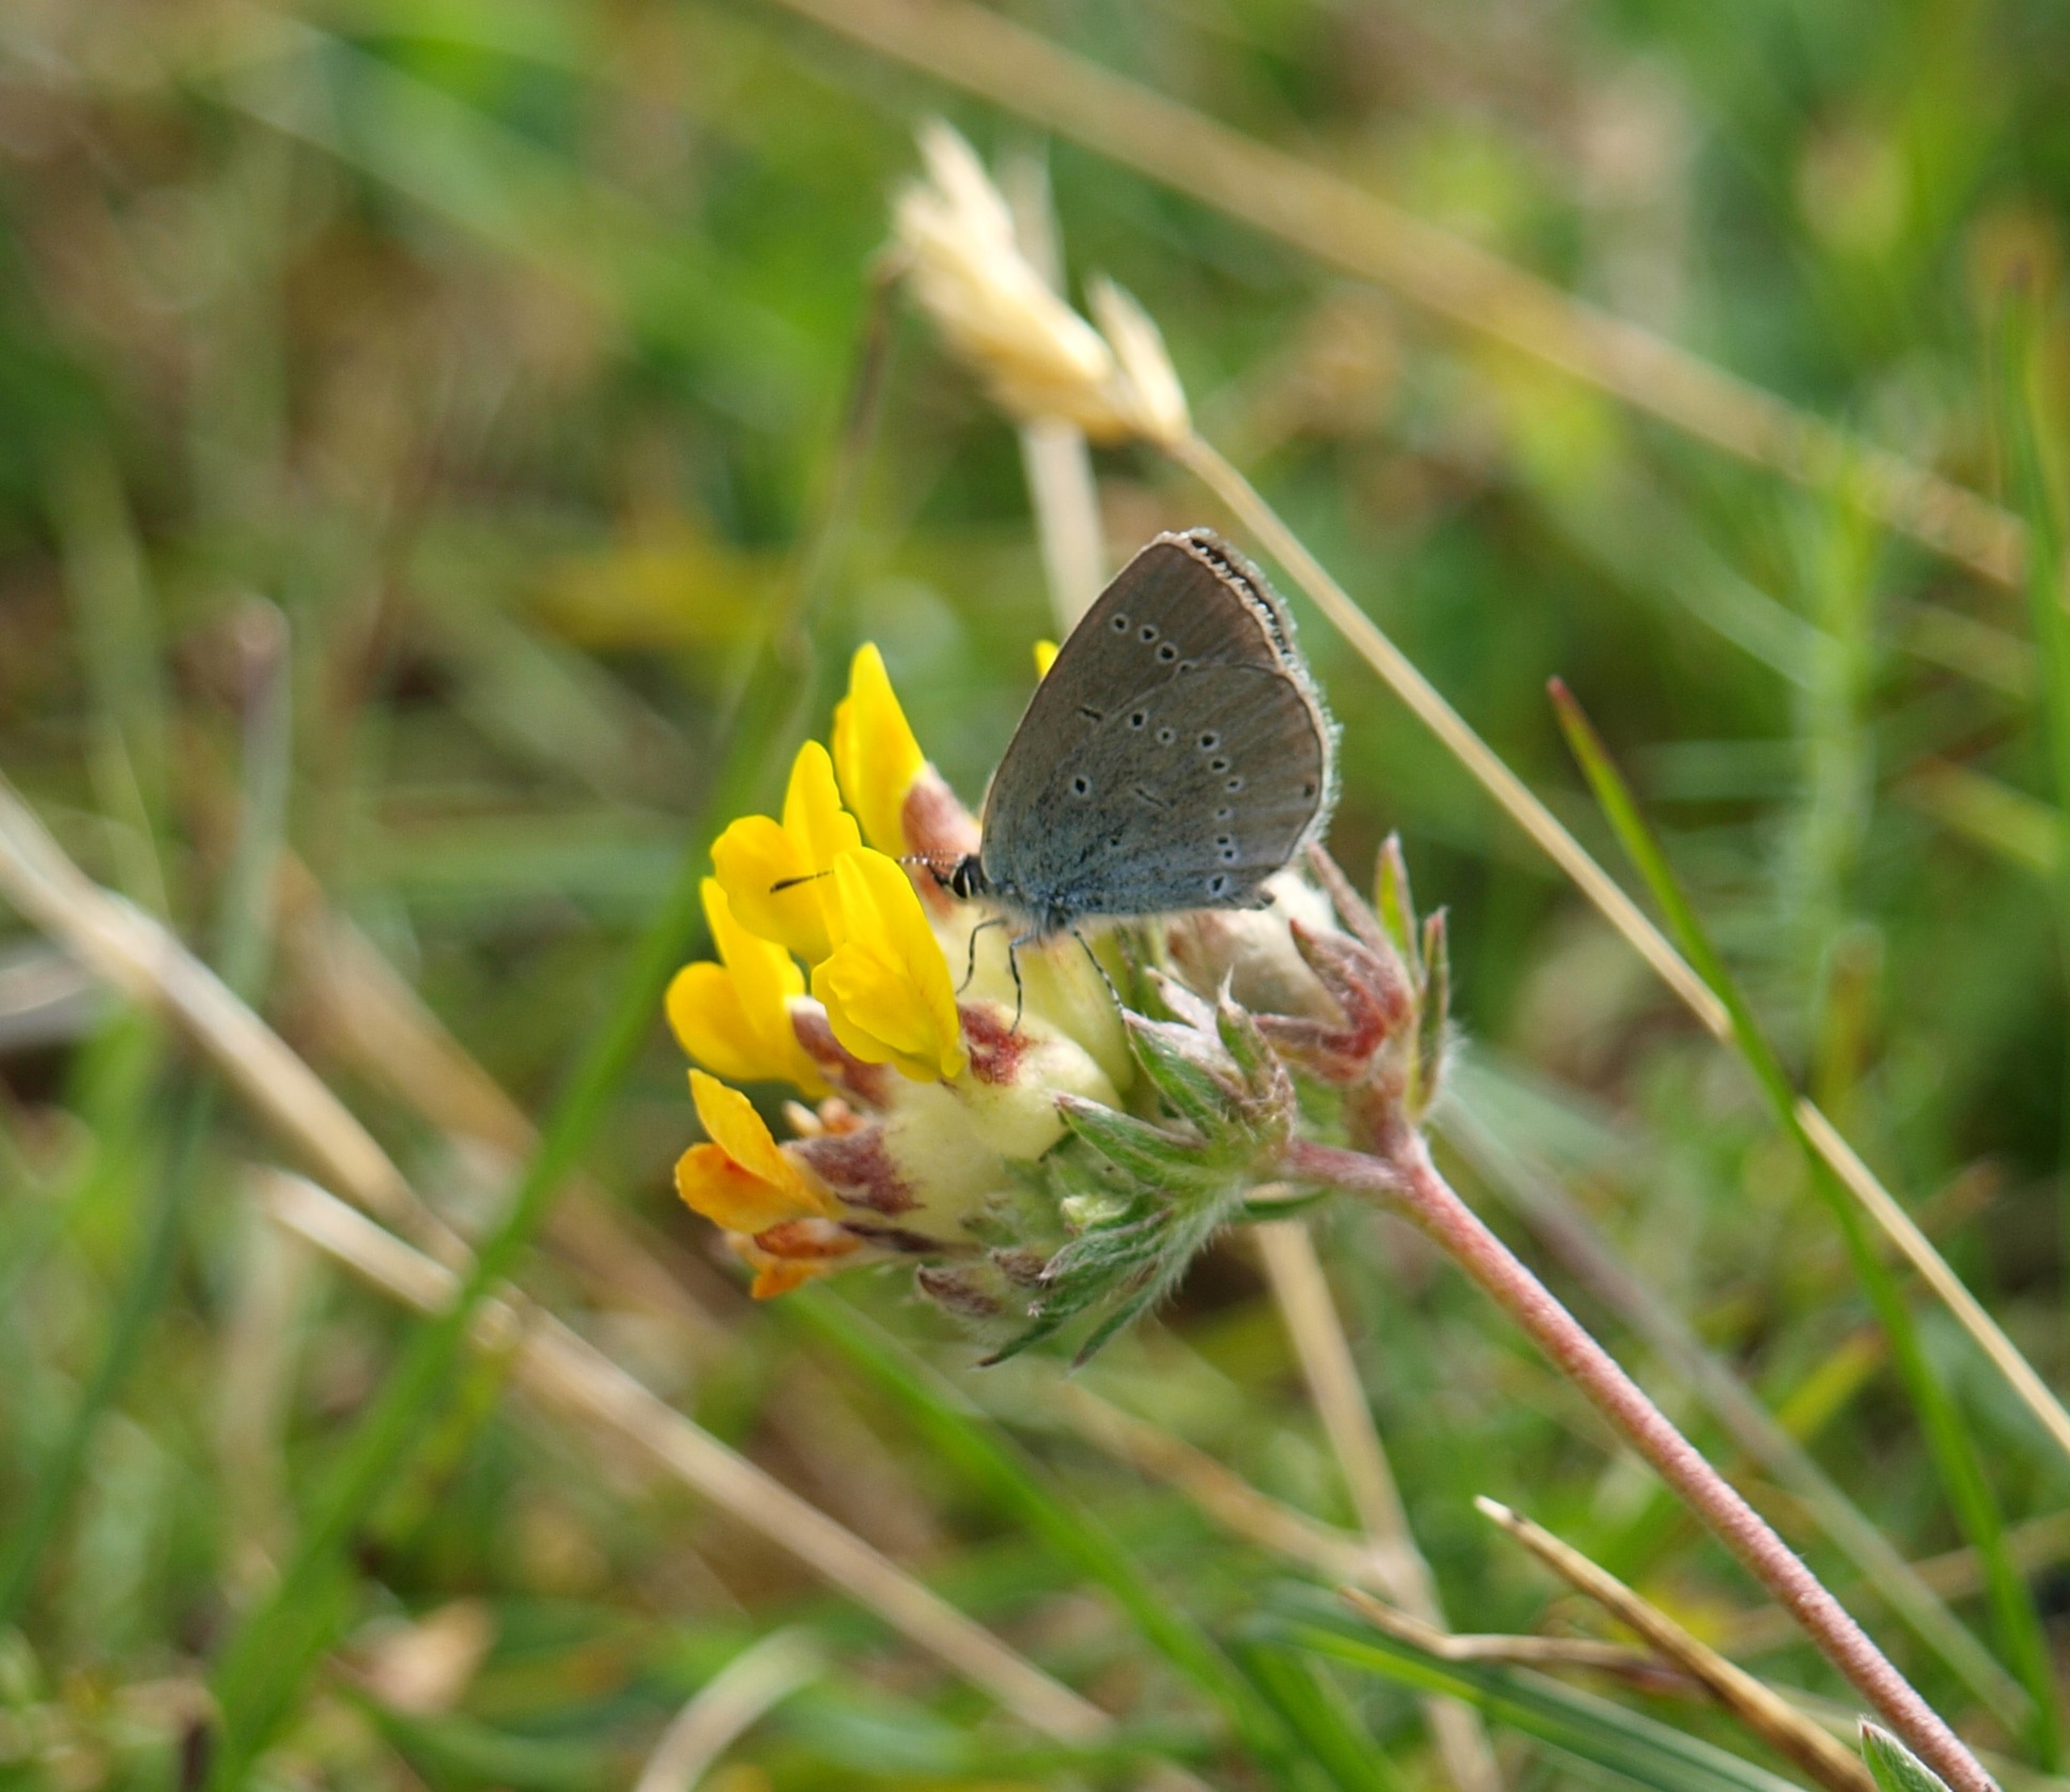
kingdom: Animalia
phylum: Arthropoda
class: Insecta
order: Lepidoptera
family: Lycaenidae
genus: Cupido
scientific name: Cupido minimus
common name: Dværgblåfugl
